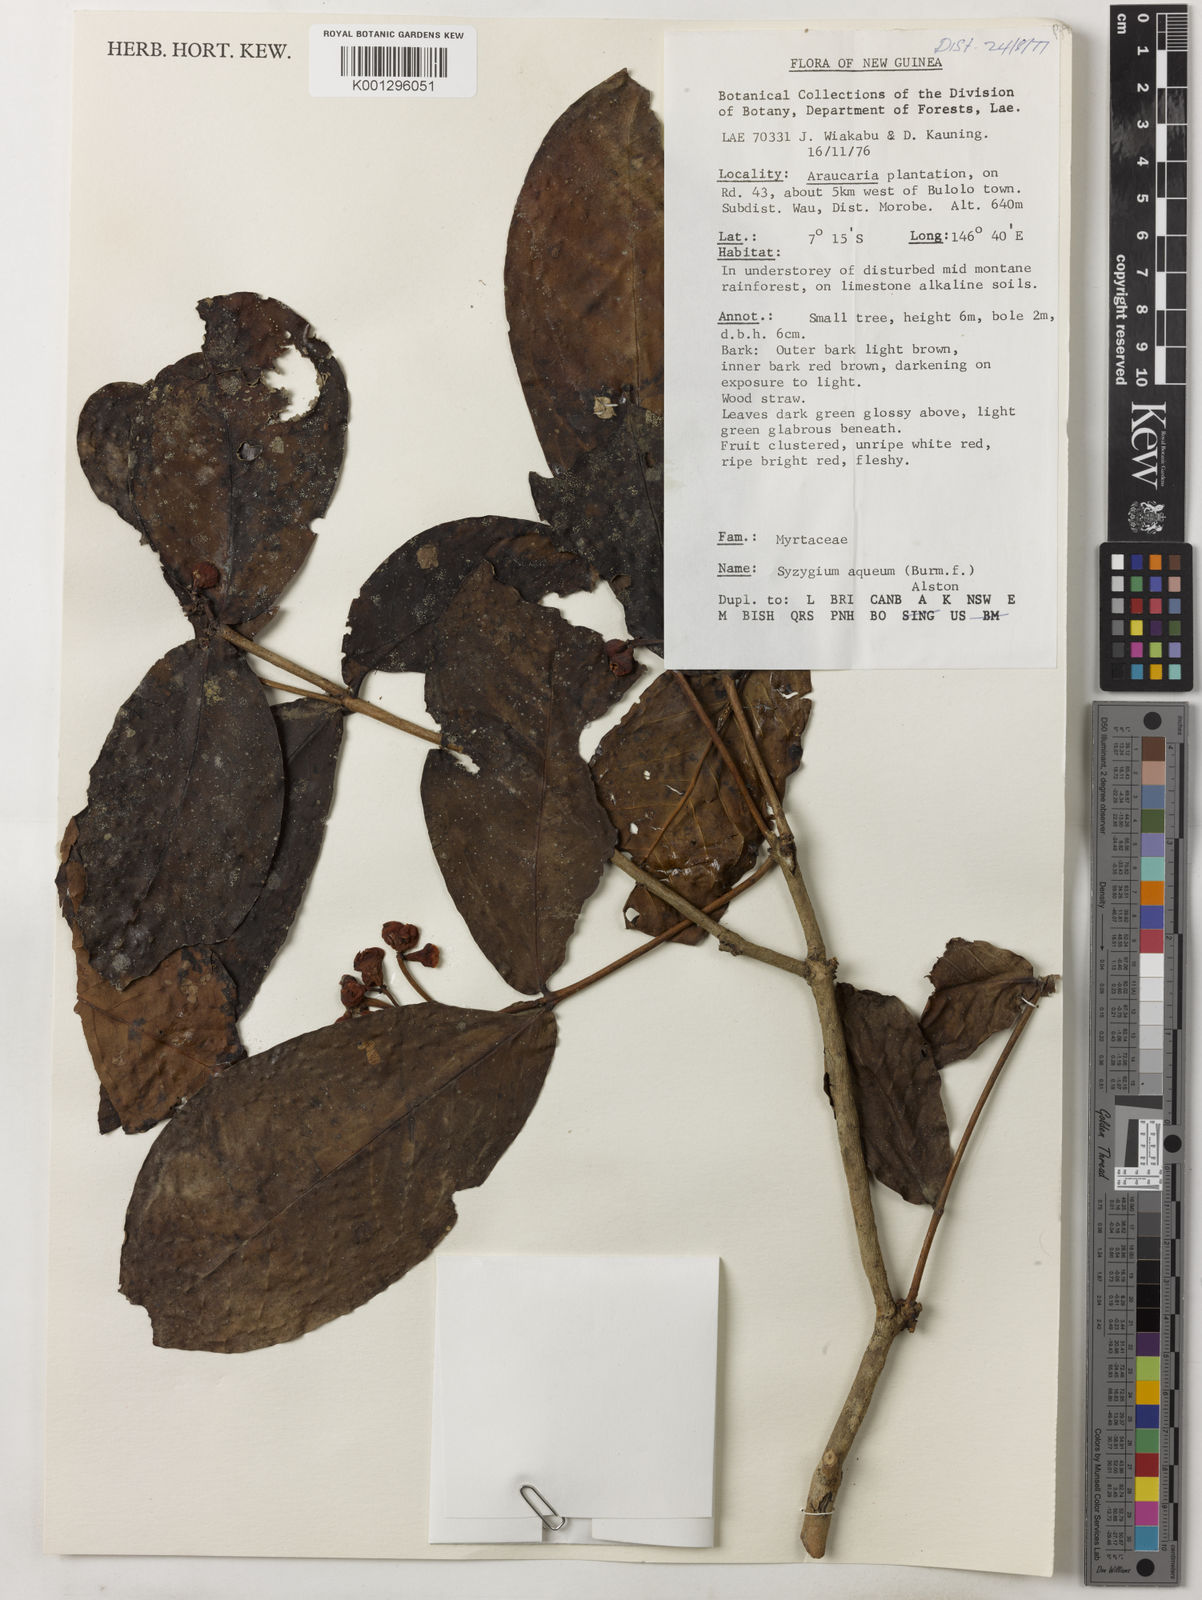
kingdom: Plantae
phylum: Tracheophyta
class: Magnoliopsida
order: Myrtales
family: Myrtaceae
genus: Syzygium
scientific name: Syzygium aqueum
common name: Water-apple
